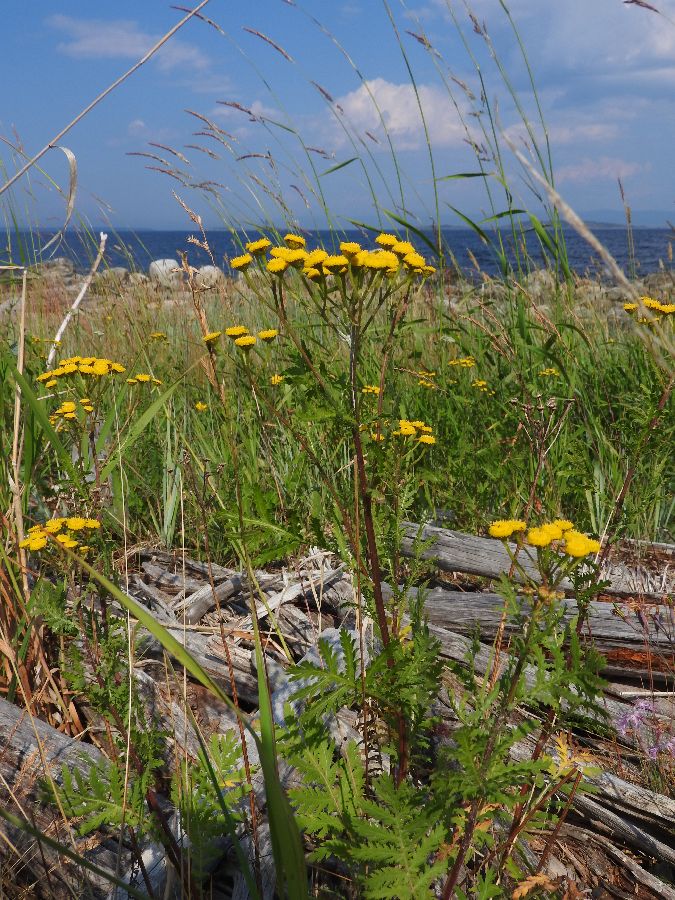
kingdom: Plantae
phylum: Tracheophyta
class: Magnoliopsida
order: Asterales
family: Asteraceae
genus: Tanacetum
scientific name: Tanacetum vulgare
